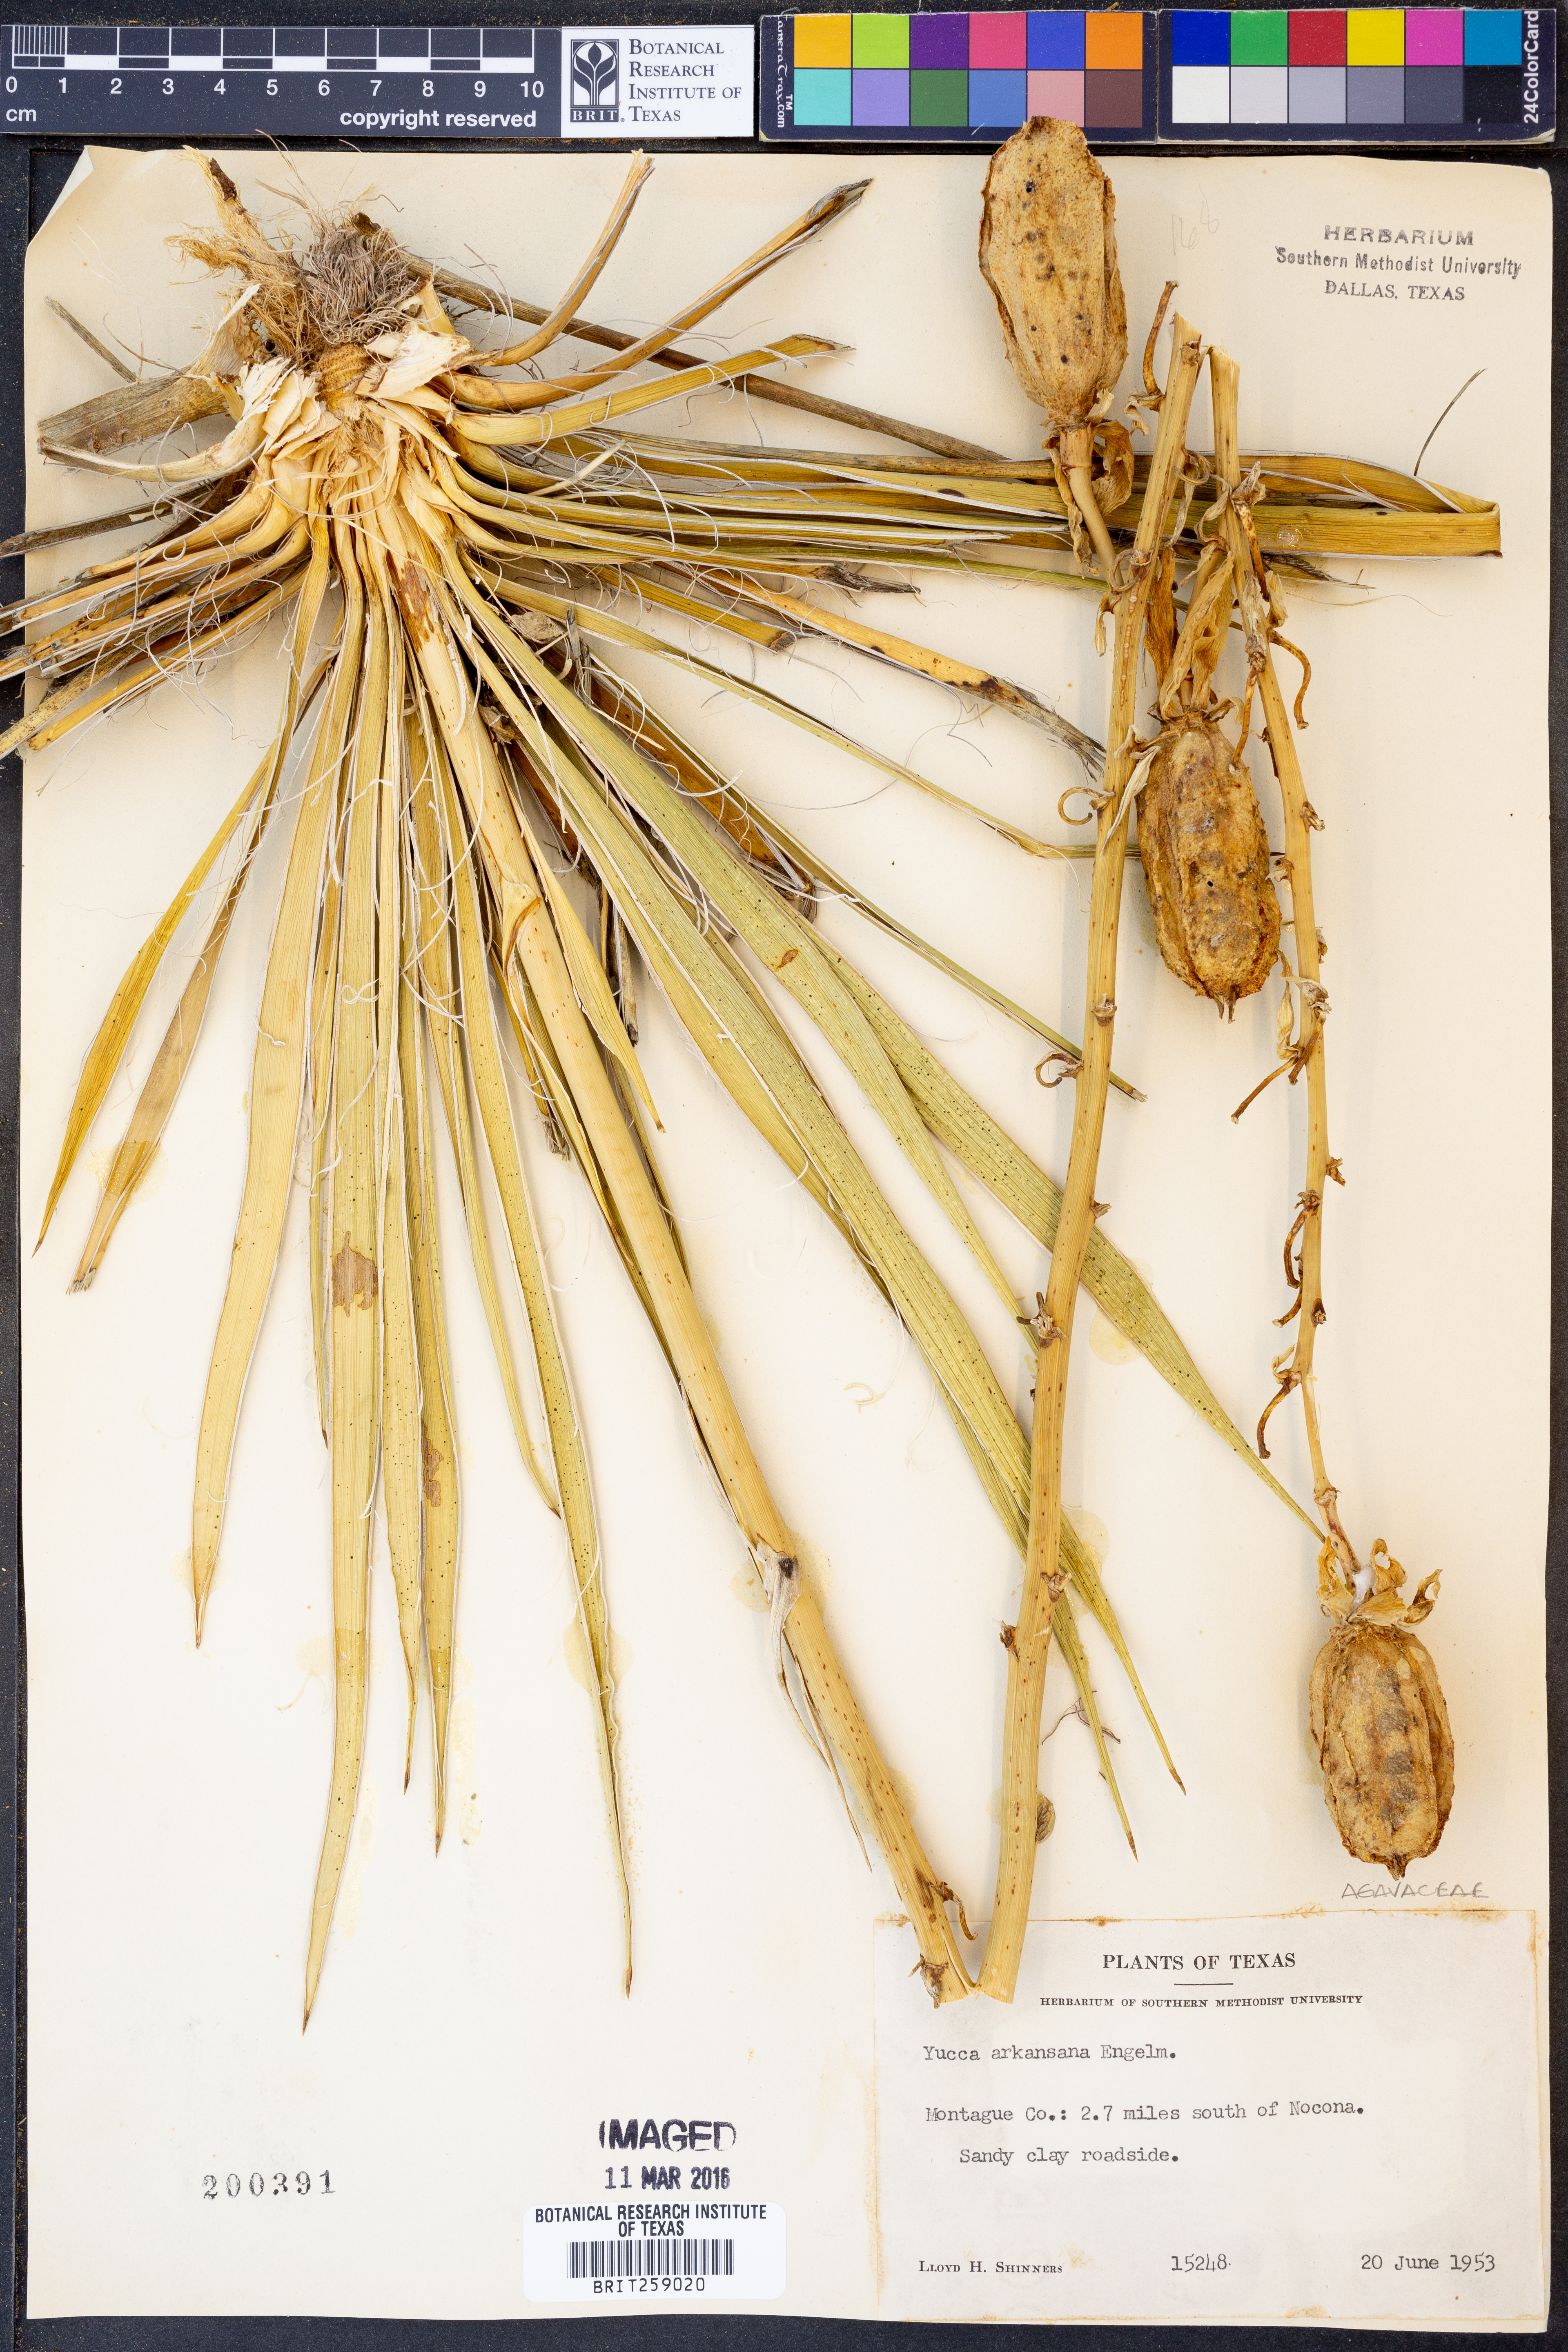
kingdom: Plantae
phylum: Tracheophyta
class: Liliopsida
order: Asparagales
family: Asparagaceae
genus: Yucca
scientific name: Yucca arkansana
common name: Arkansas yucca
